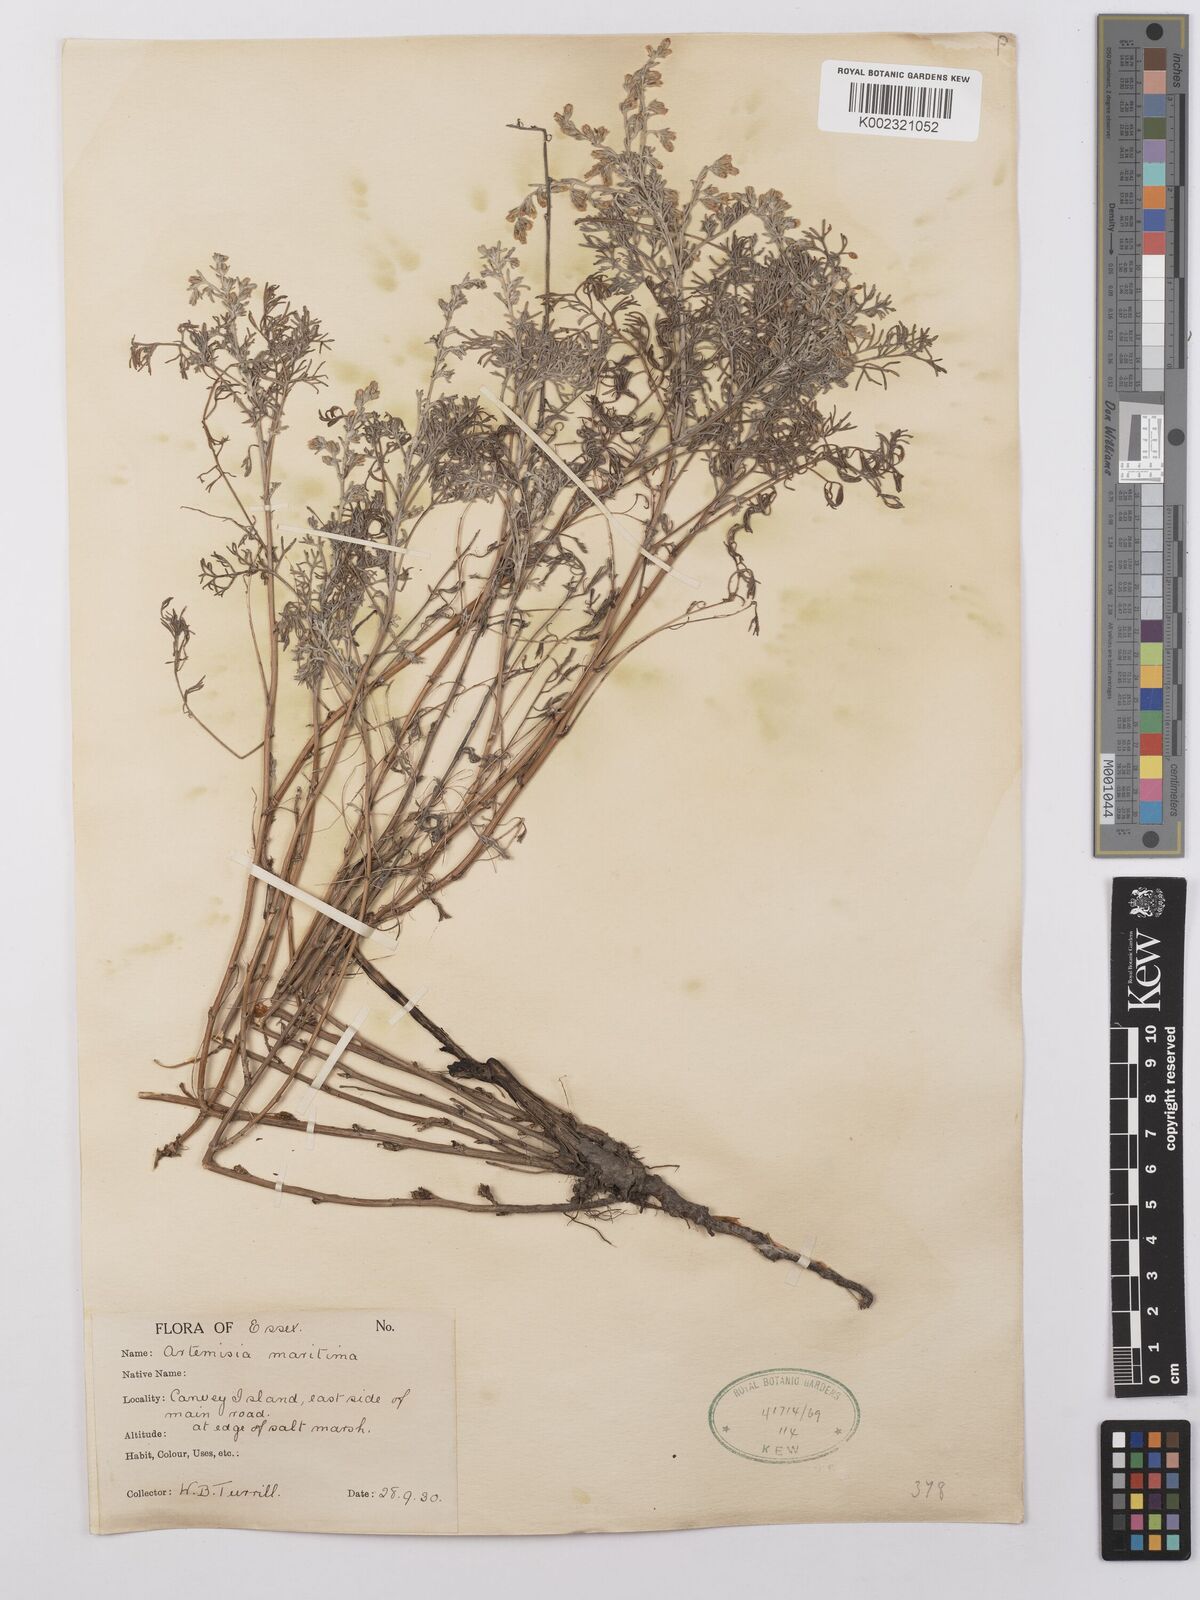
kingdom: Plantae
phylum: Tracheophyta
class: Magnoliopsida
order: Asterales
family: Asteraceae
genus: Artemisia
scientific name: Artemisia maritima
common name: Wormseed
